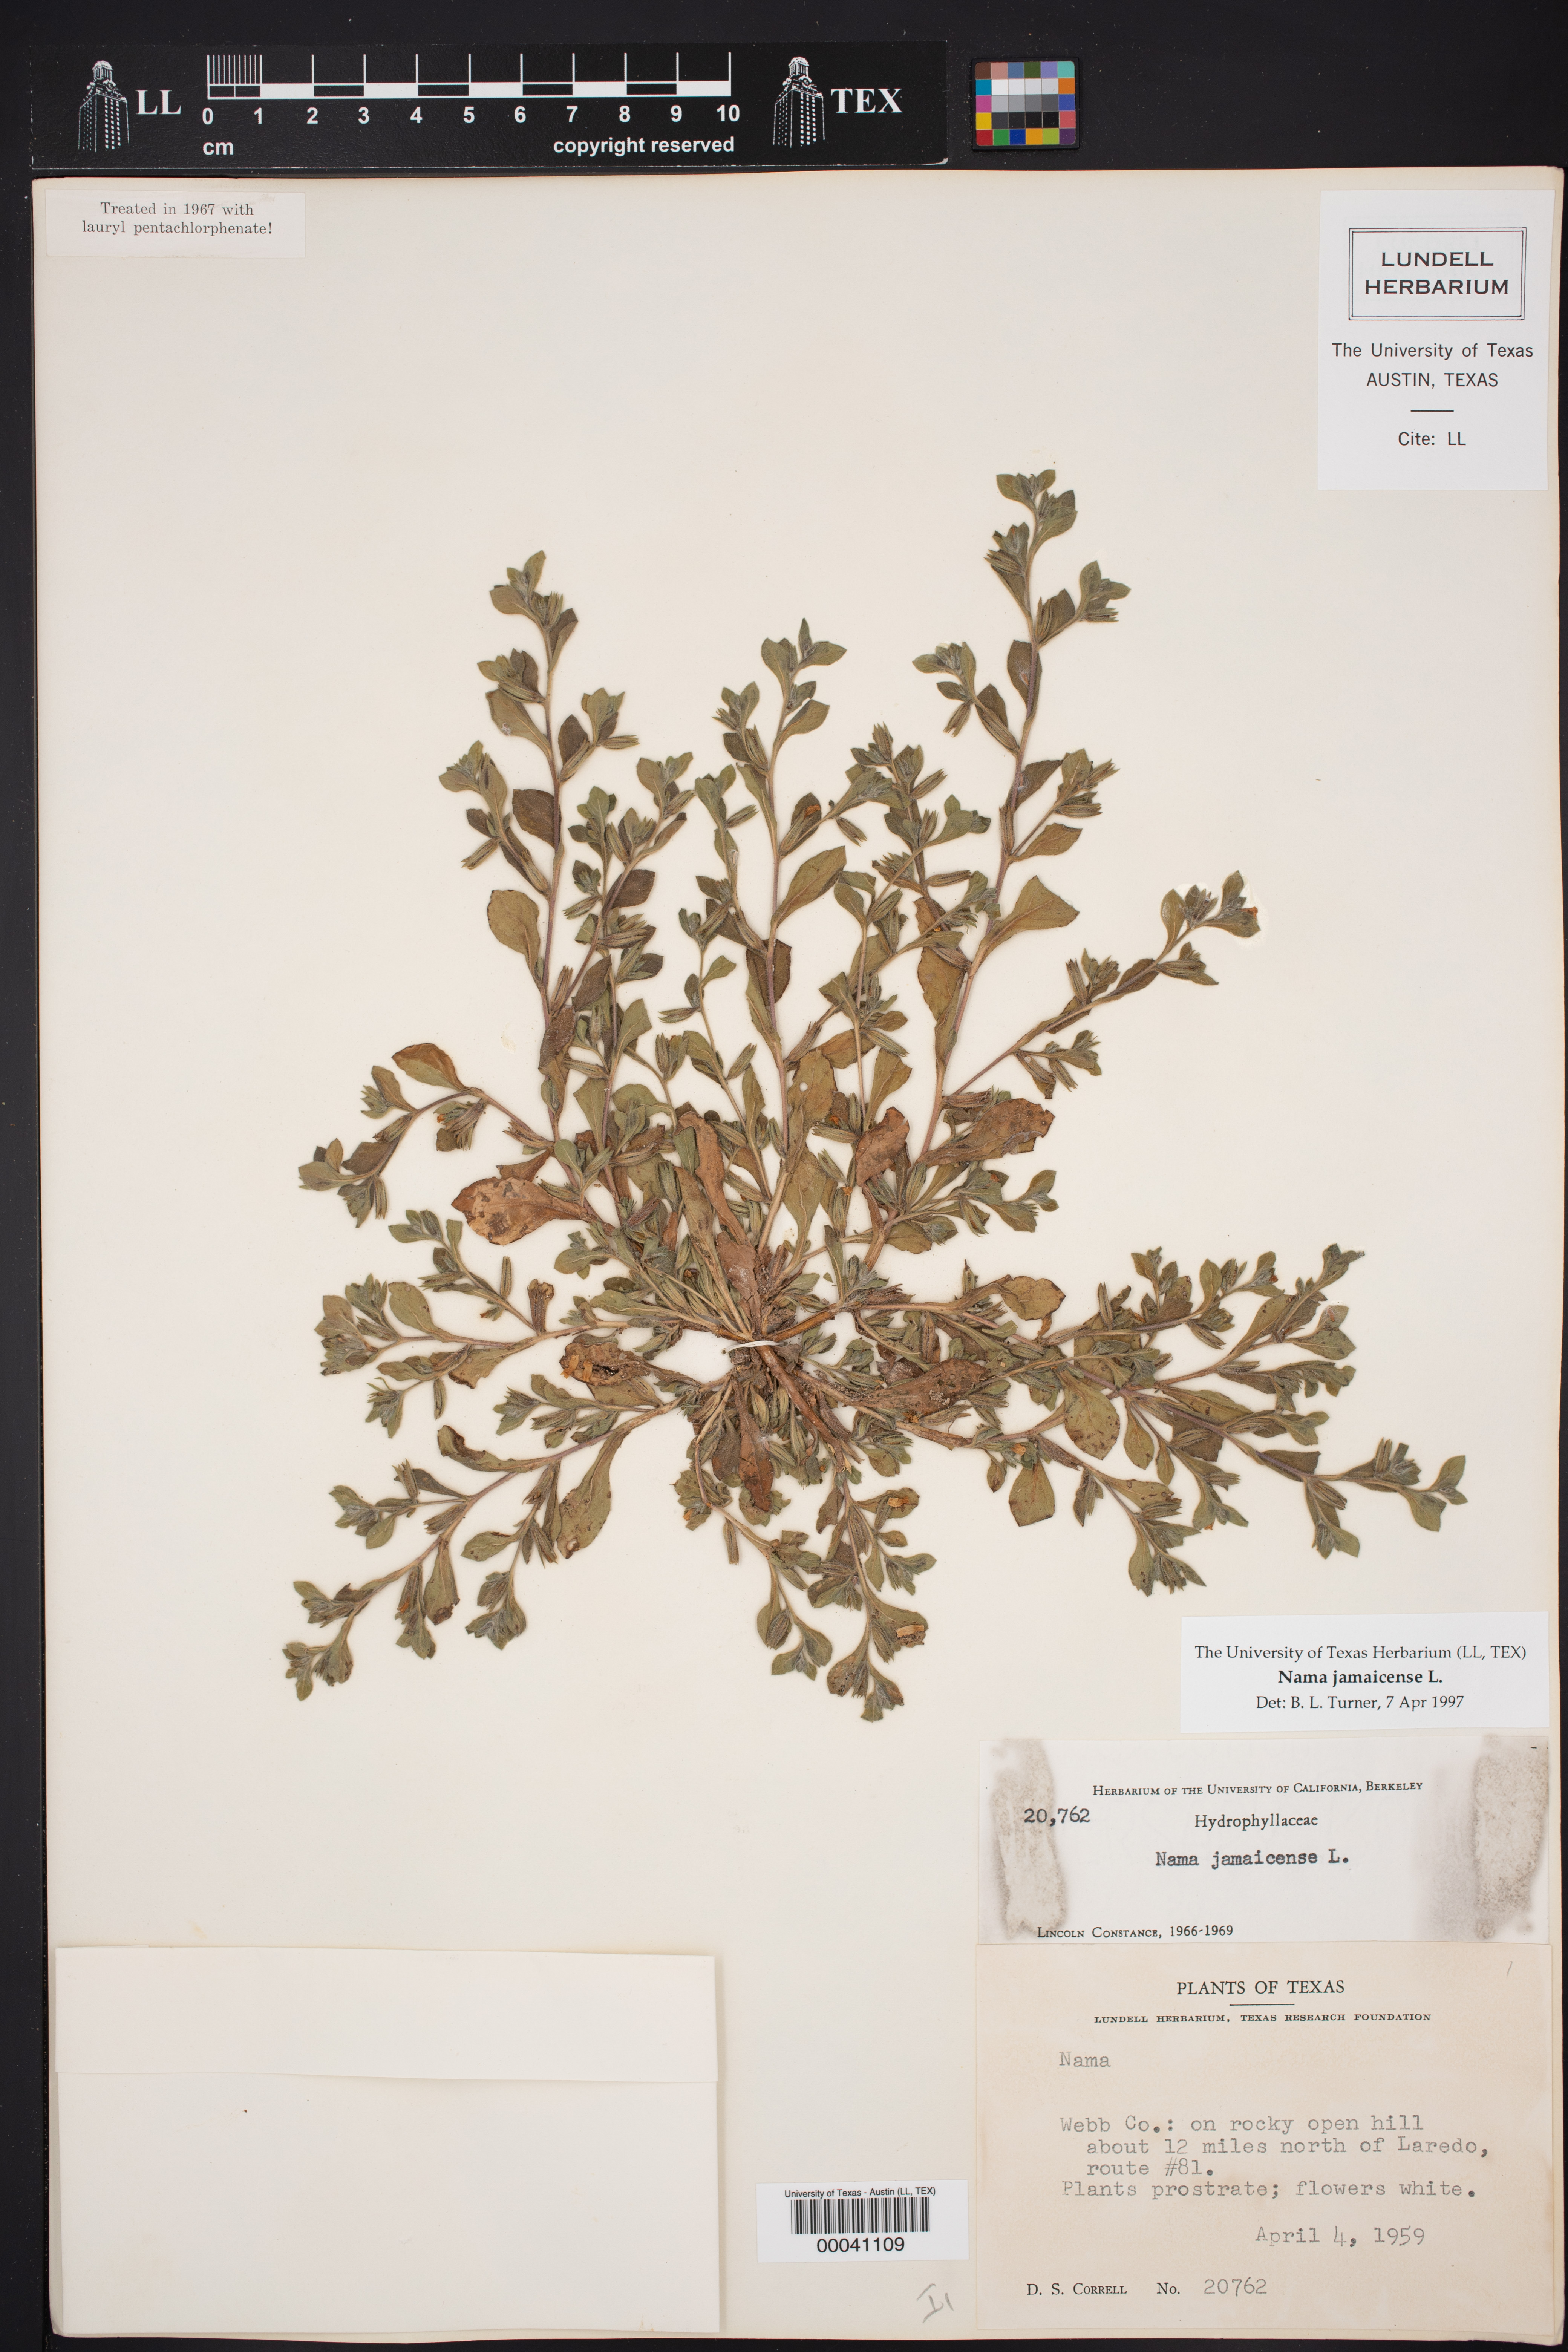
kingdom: Plantae
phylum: Tracheophyta
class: Magnoliopsida
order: Boraginales
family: Namaceae
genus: Nama
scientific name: Nama jamaicensis
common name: Jamaicanweed
